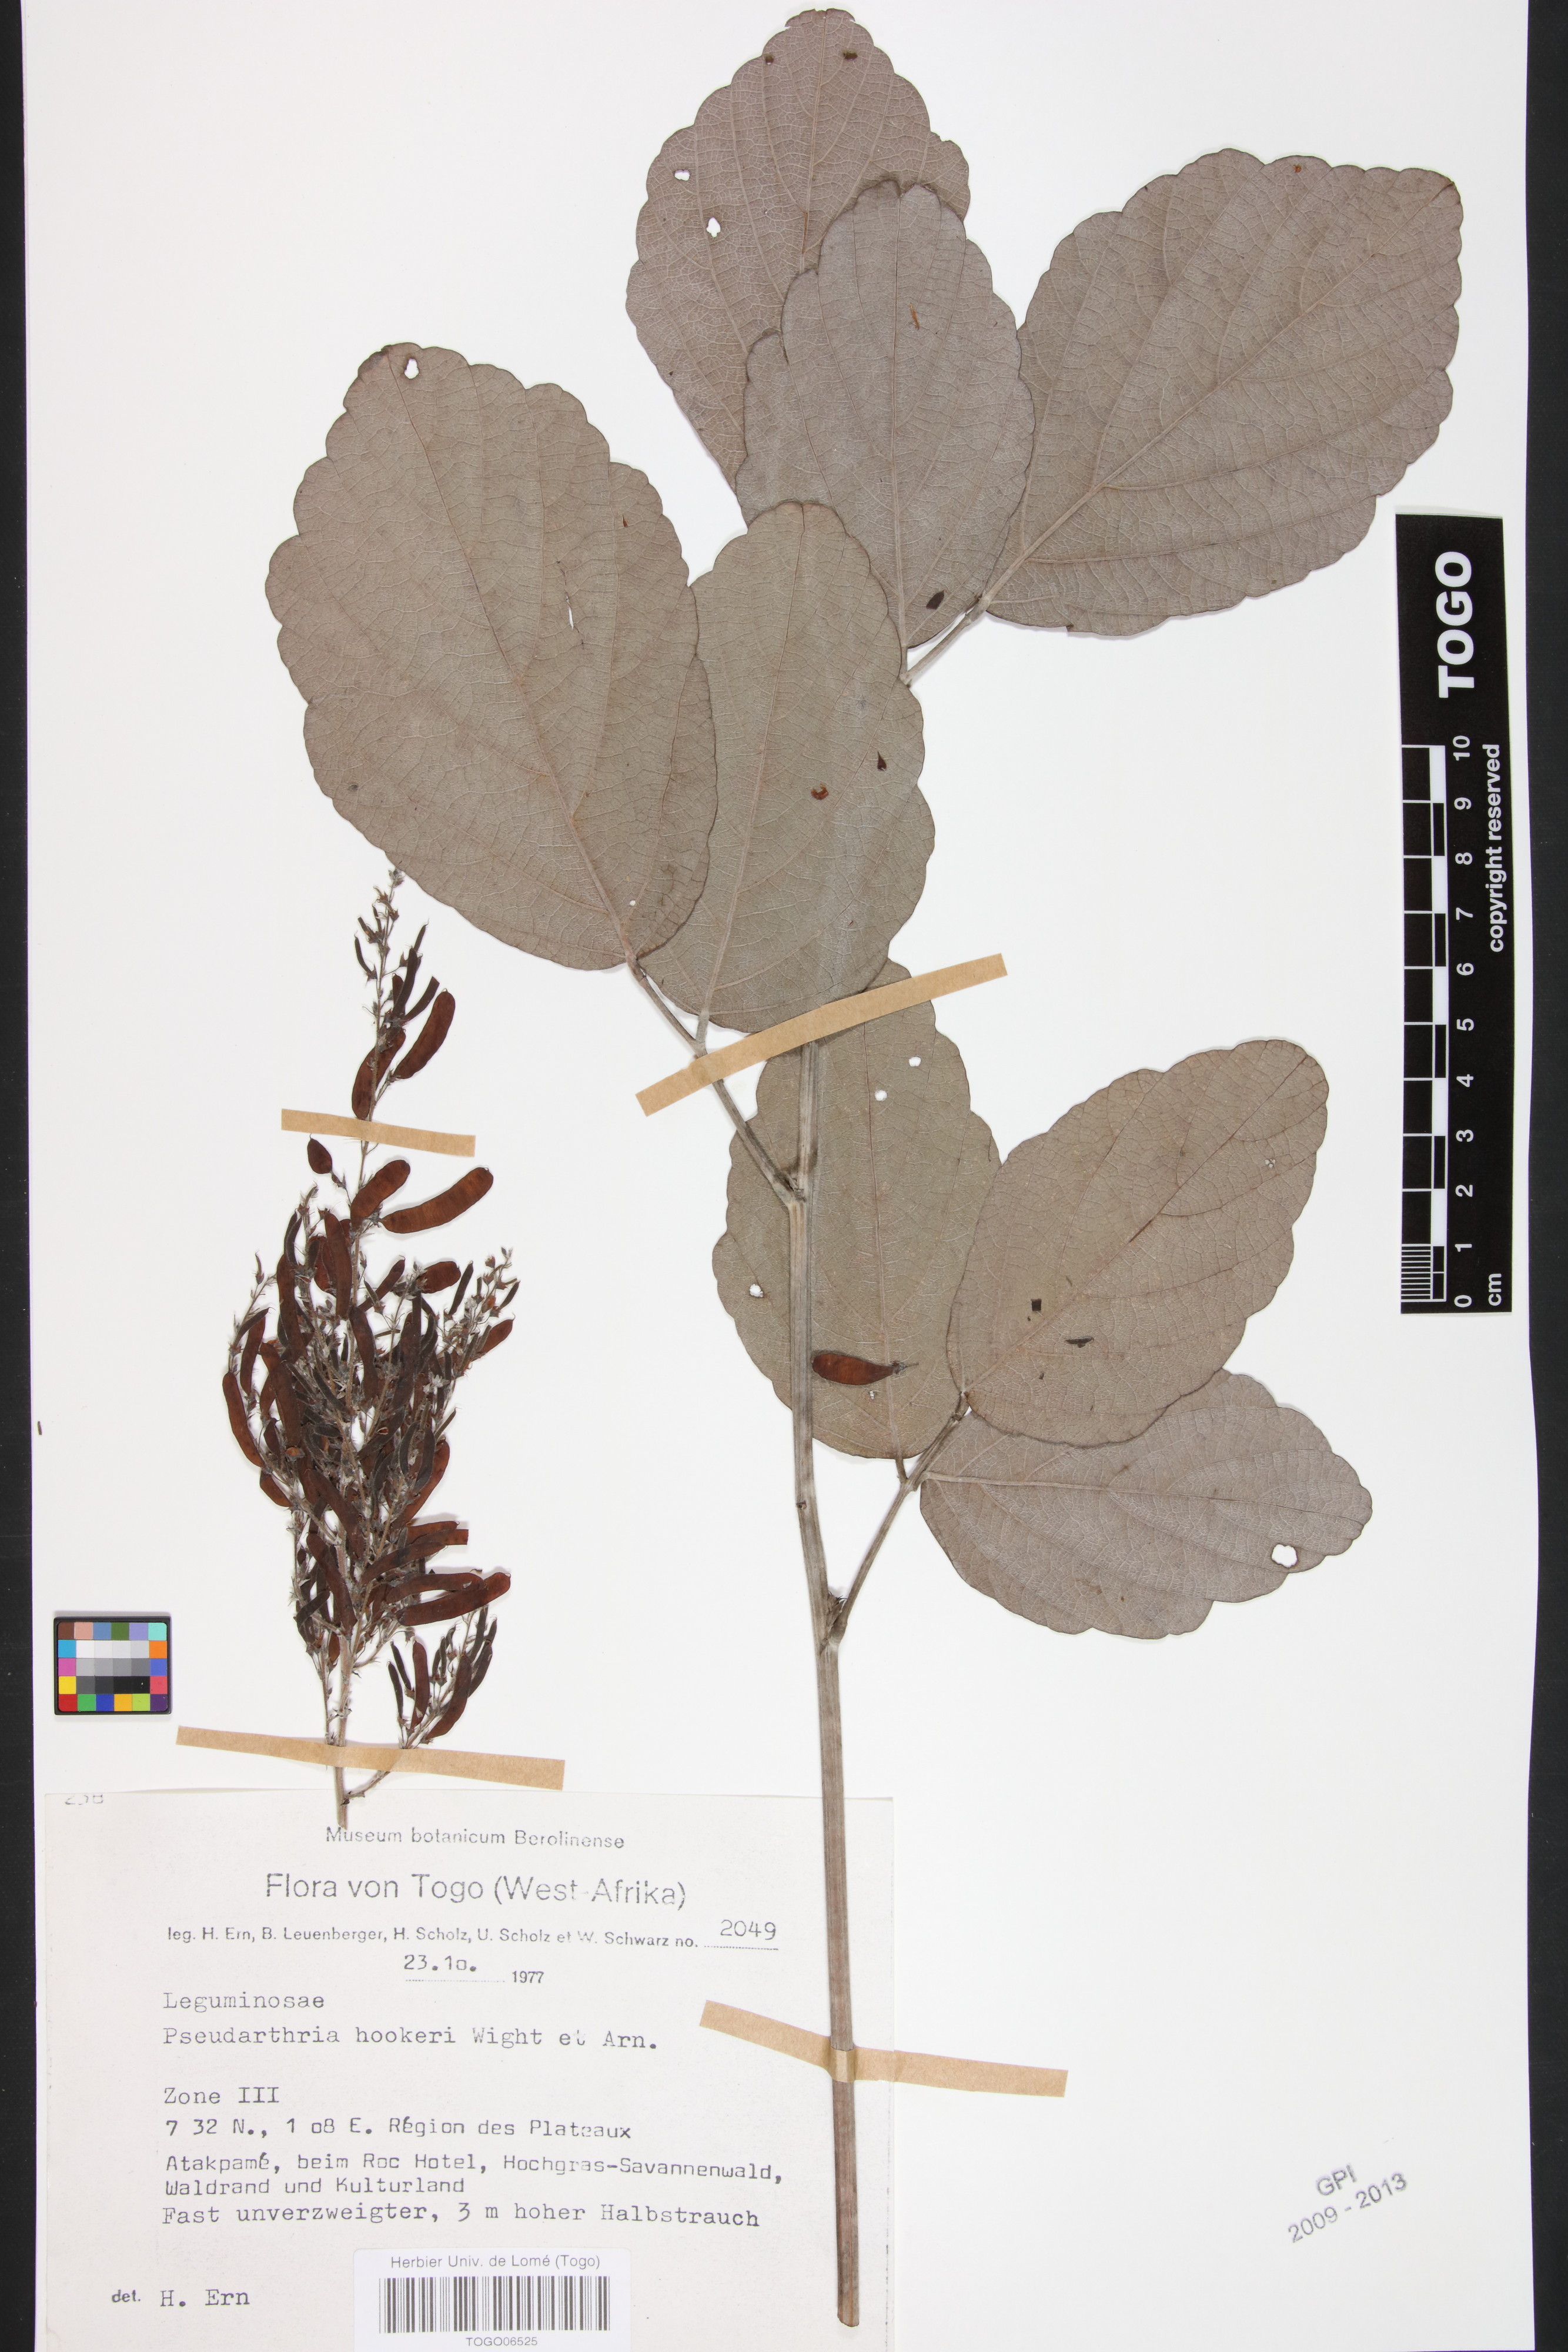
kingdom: Plantae
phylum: Tracheophyta
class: Magnoliopsida
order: Fabales
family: Fabaceae
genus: Pseudarthria
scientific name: Pseudarthria hookeri
